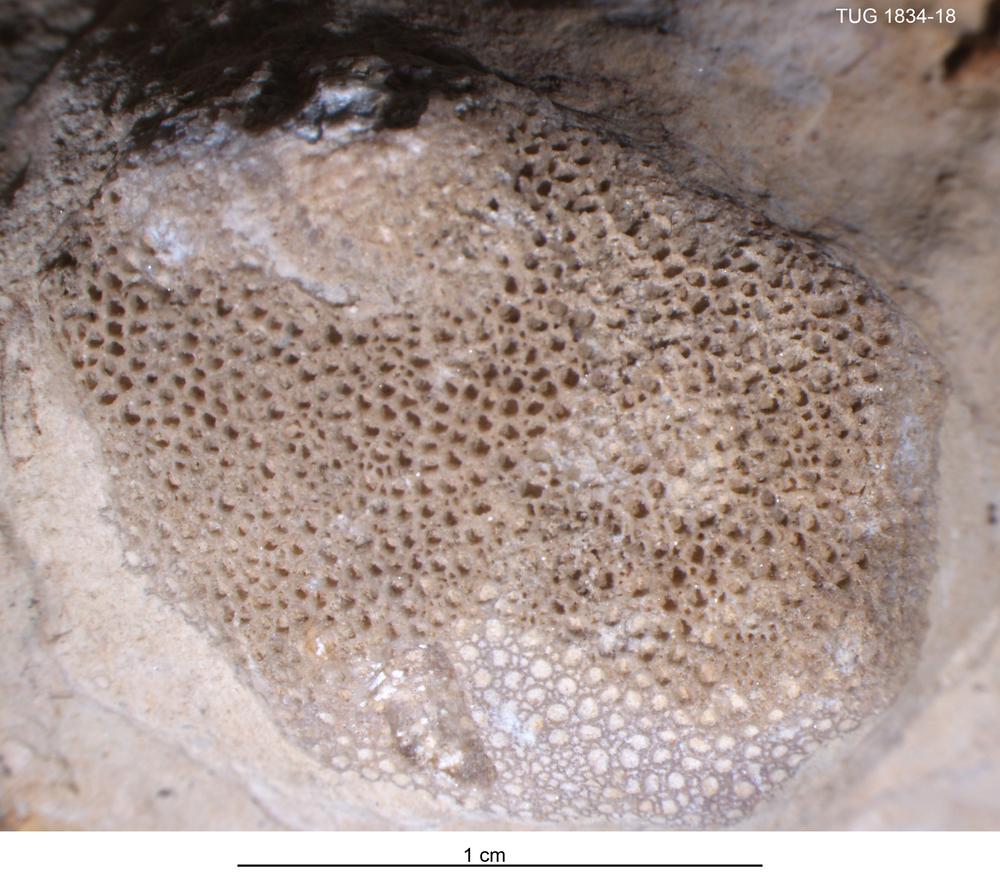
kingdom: Animalia
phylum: Cnidaria
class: Anthozoa
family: Favositidae
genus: Paleofavosites
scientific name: Paleofavosites
